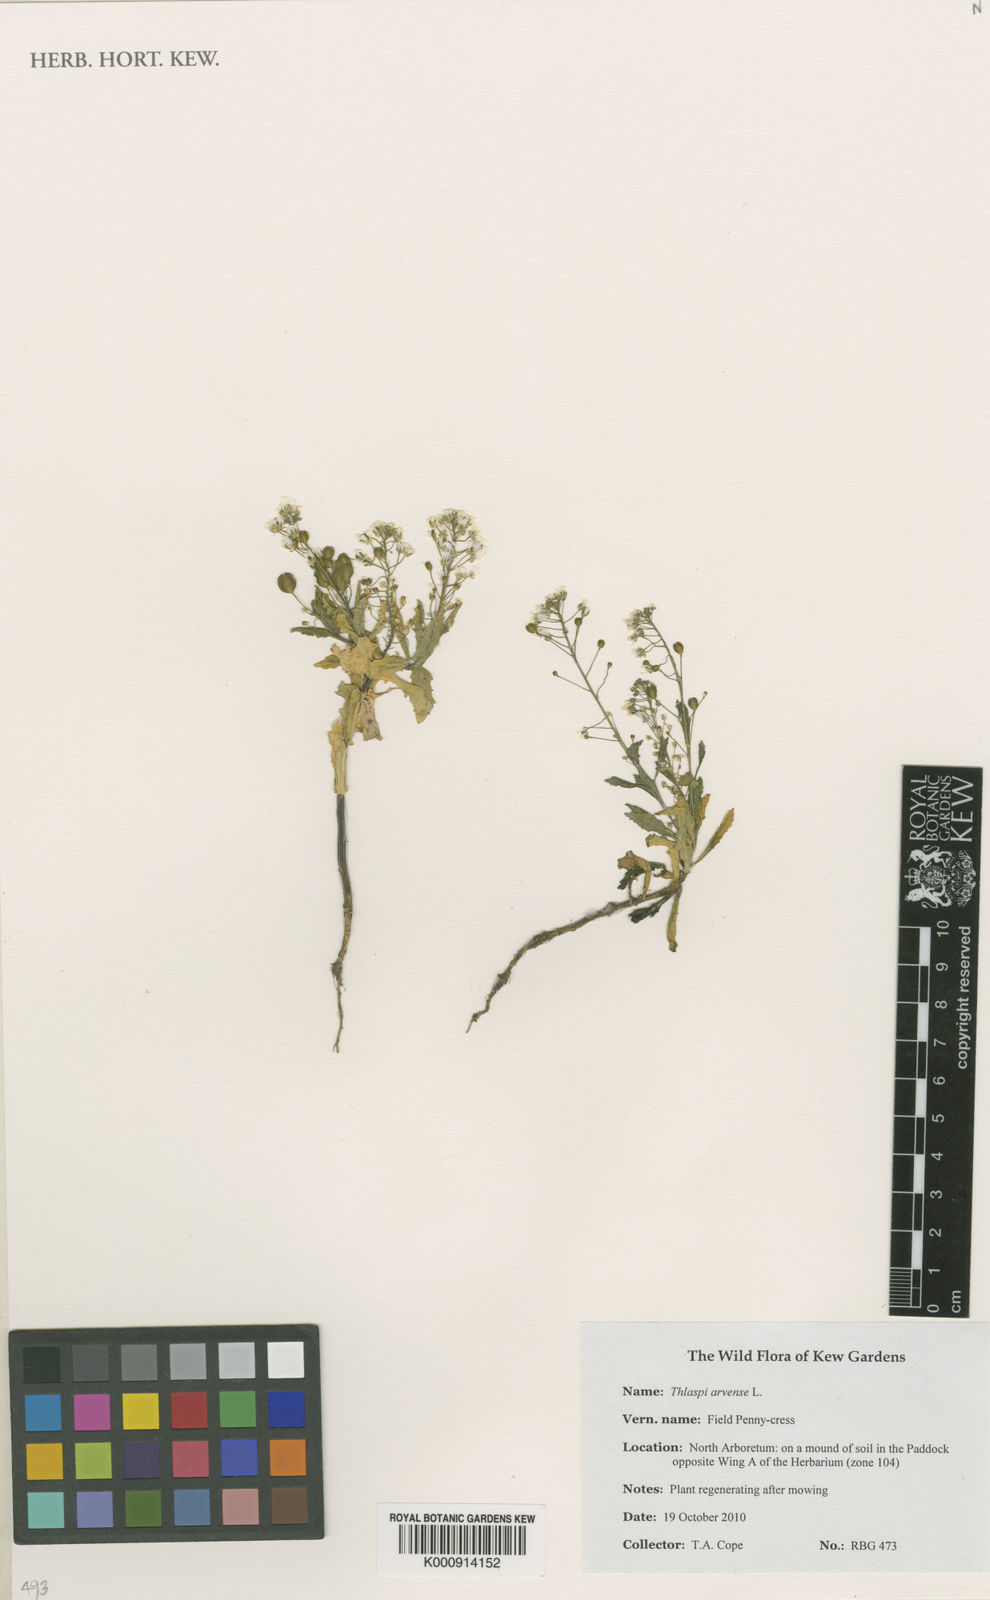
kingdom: Plantae
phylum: Tracheophyta
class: Magnoliopsida
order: Brassicales
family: Brassicaceae
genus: Thlaspi
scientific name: Thlaspi arvense
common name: Field pennycress
